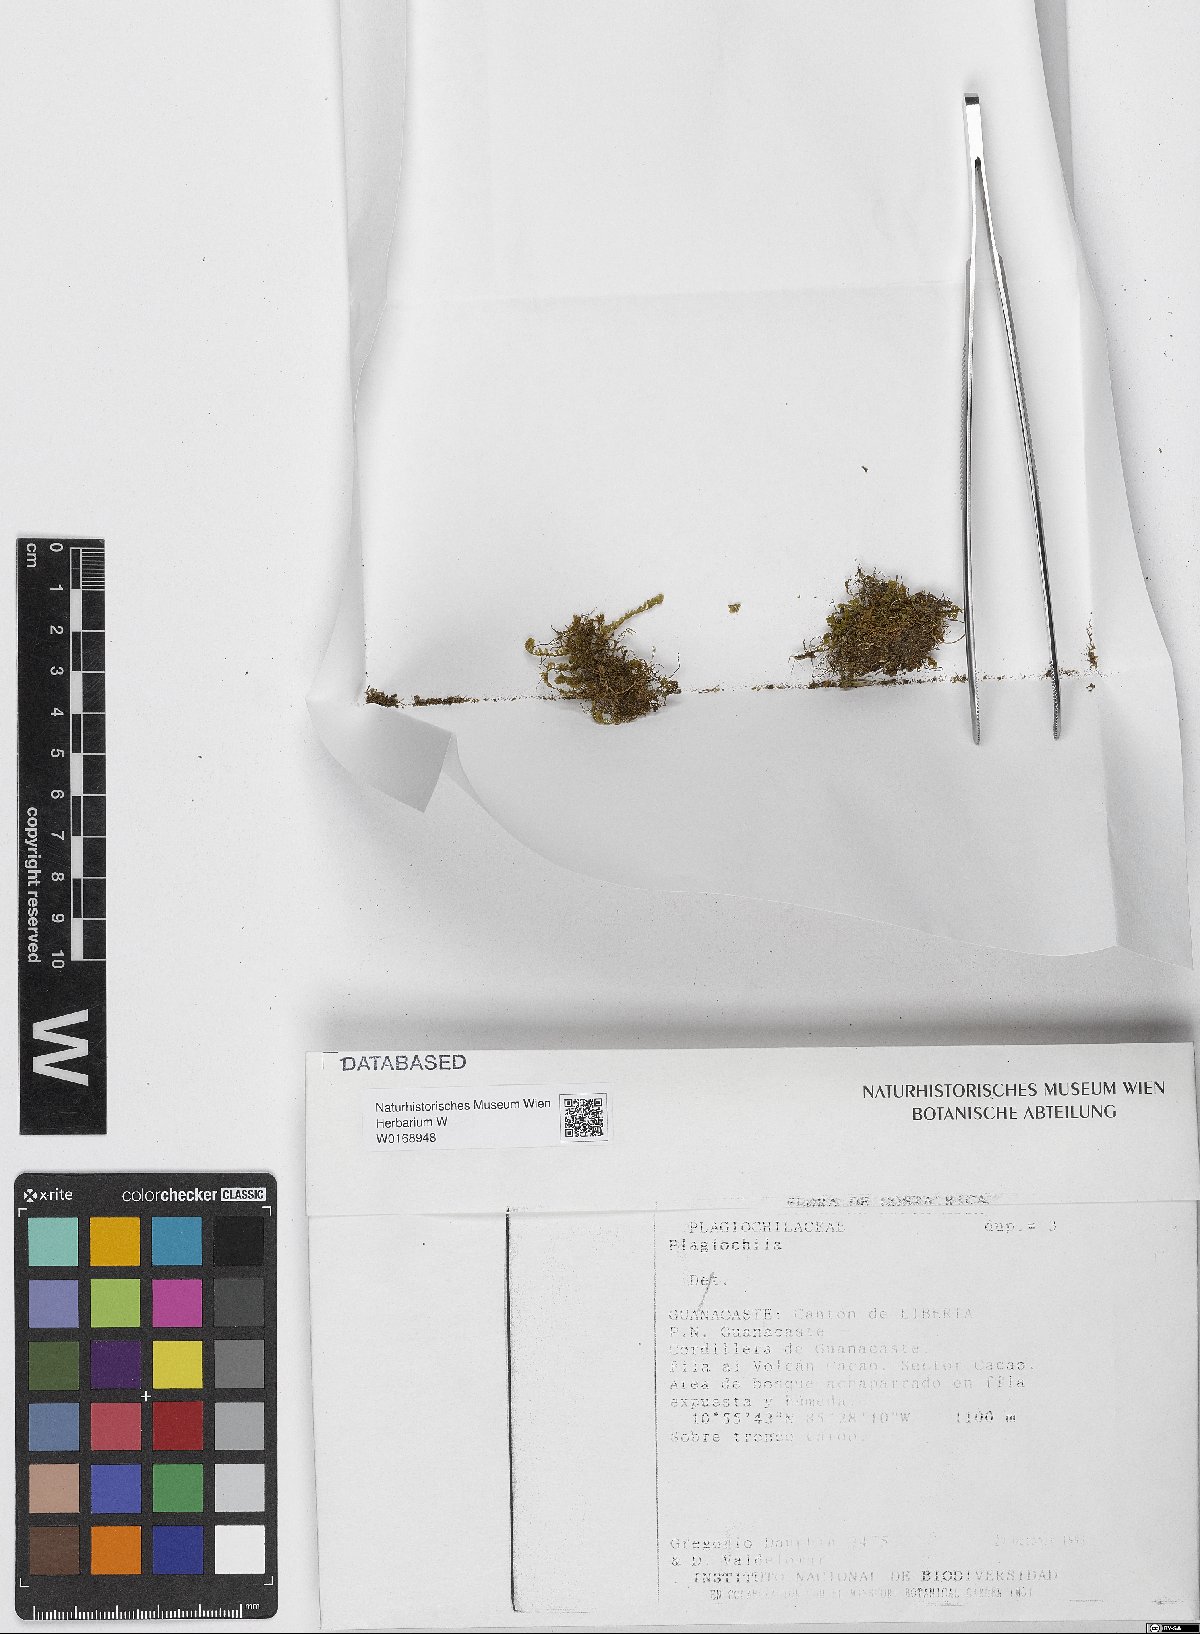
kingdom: Plantae
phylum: Marchantiophyta
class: Jungermanniopsida
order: Jungermanniales
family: Plagiochilaceae
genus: Plagiochila
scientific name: Plagiochila
